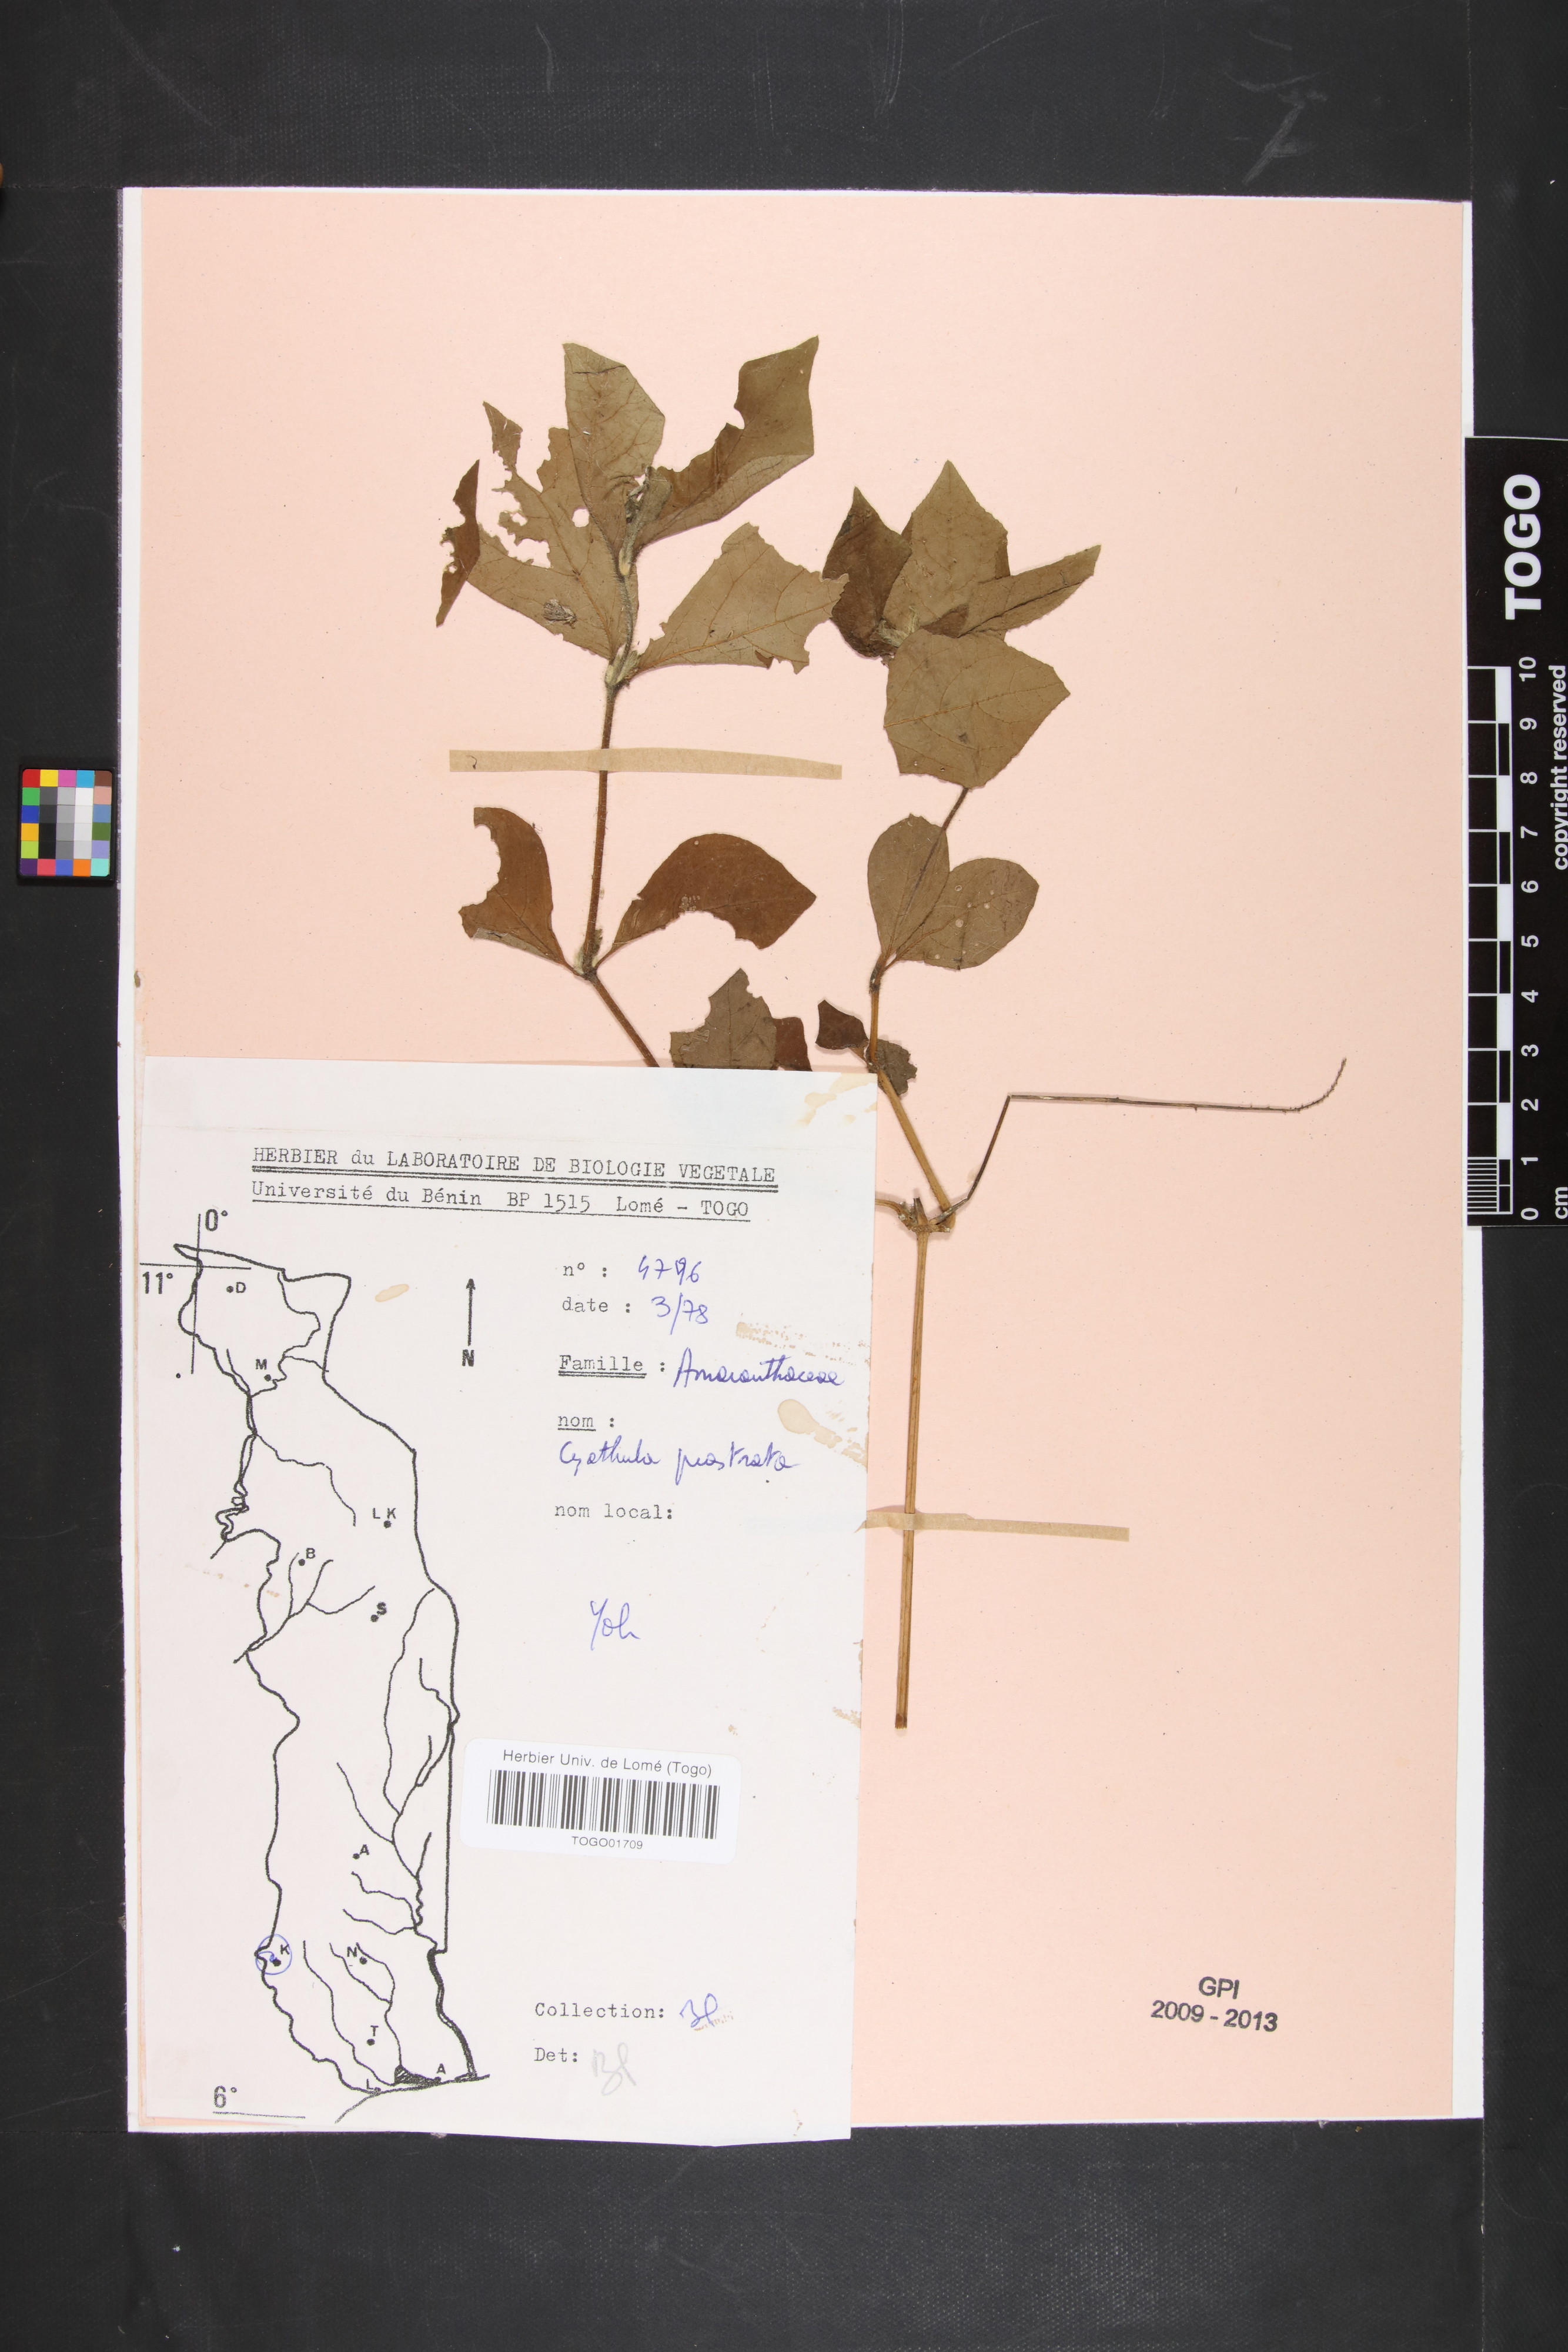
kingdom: Plantae
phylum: Tracheophyta
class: Magnoliopsida
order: Caryophyllales
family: Amaranthaceae
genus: Cyathula
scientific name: Cyathula prostrata
